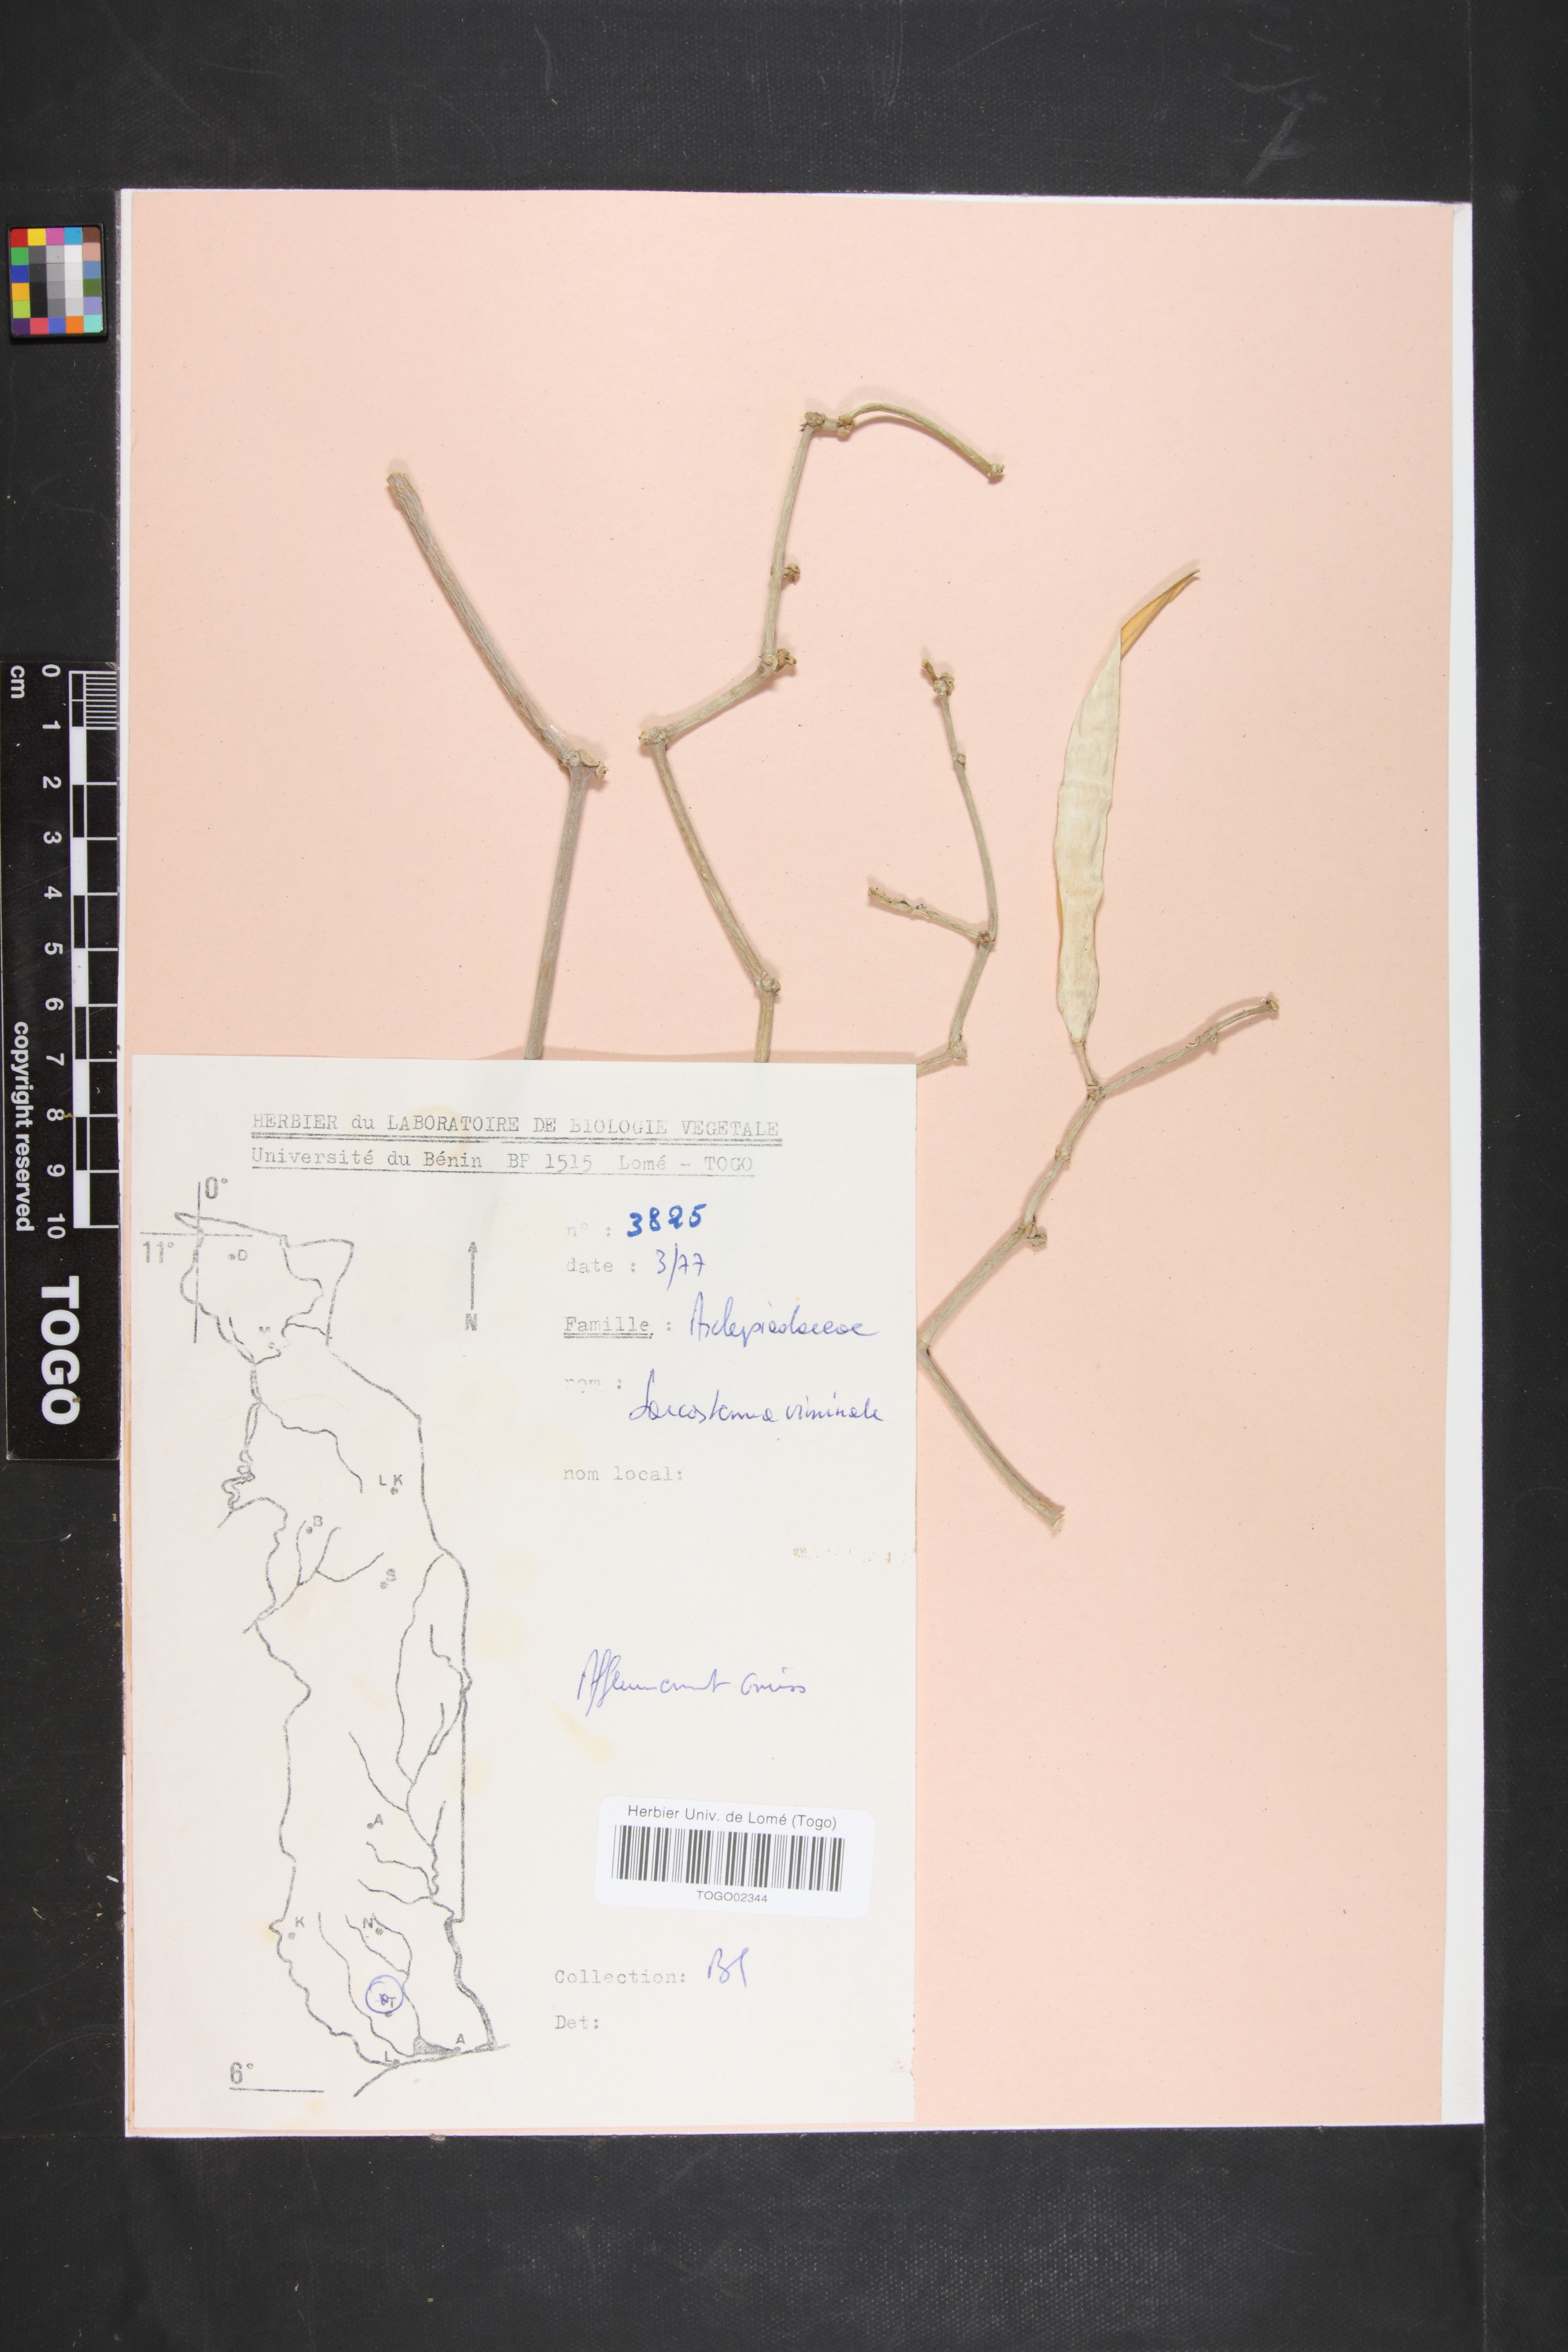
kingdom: Plantae
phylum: Tracheophyta
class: Magnoliopsida
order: Gentianales
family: Apocynaceae
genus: Cynanchum
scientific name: Cynanchum viminale
